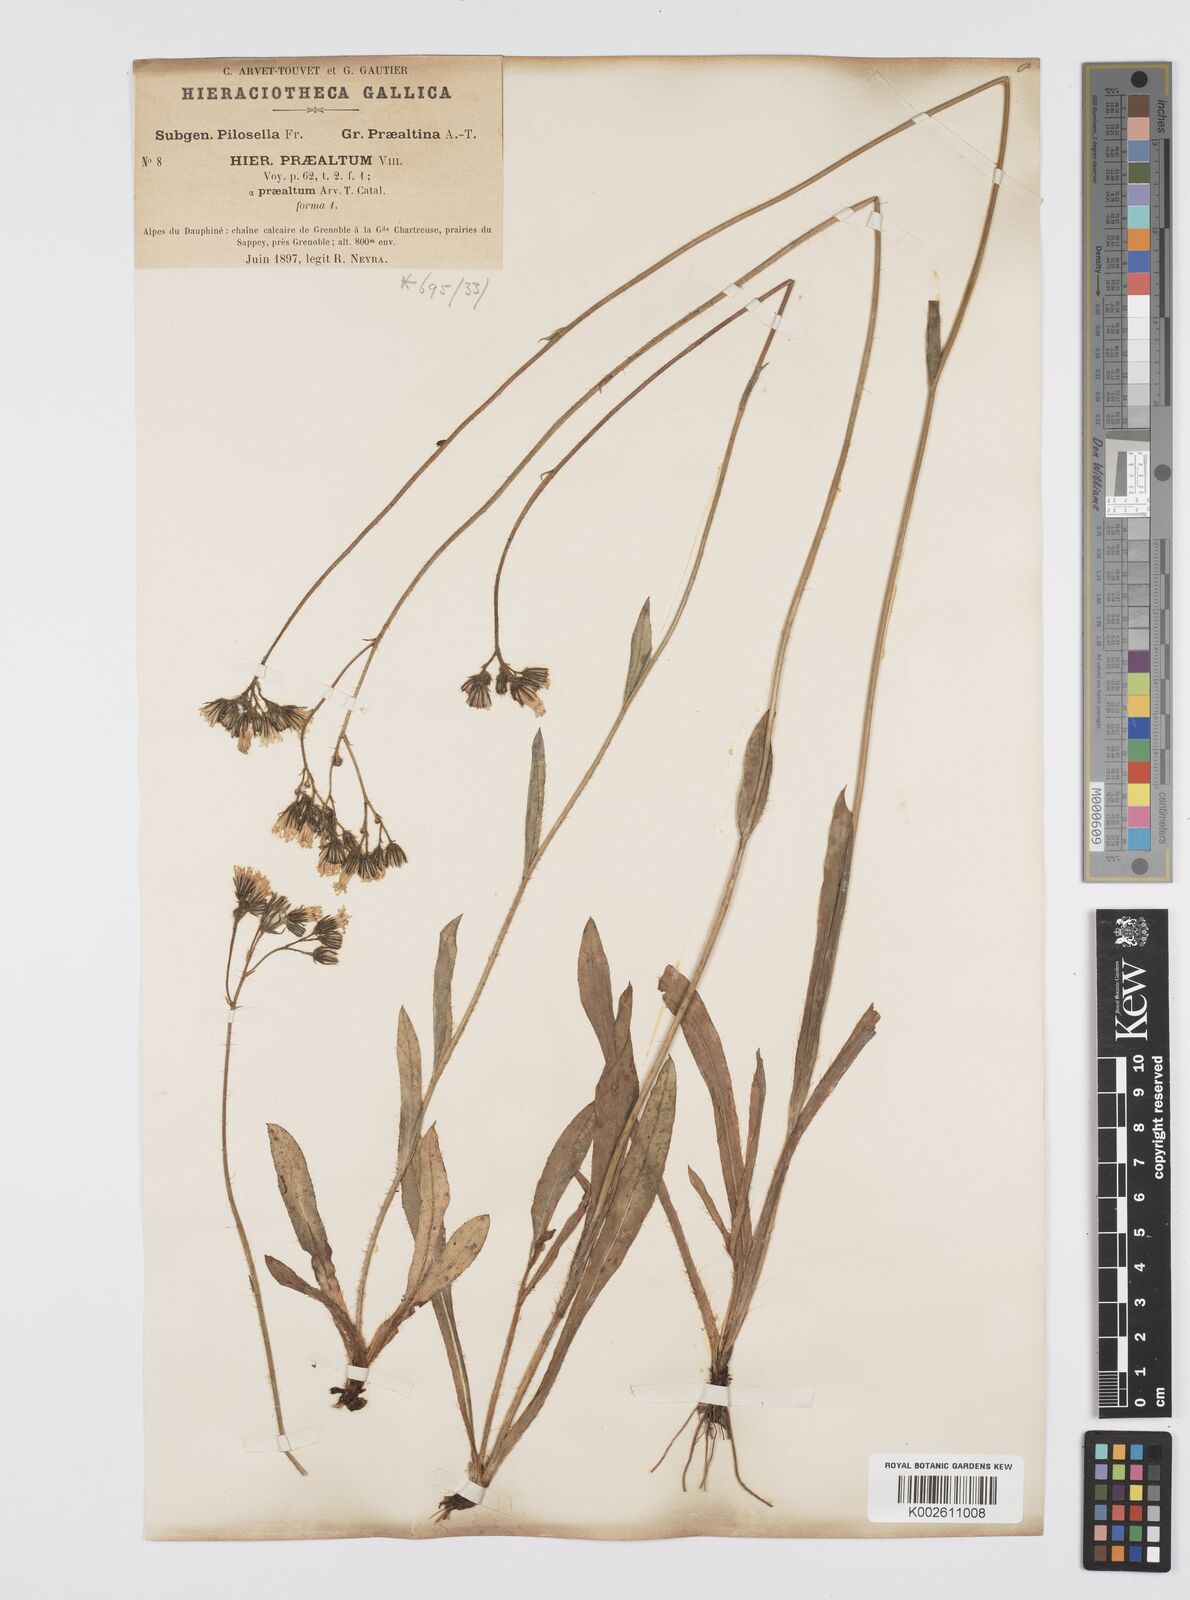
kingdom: Plantae
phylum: Tracheophyta
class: Magnoliopsida
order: Asterales
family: Asteraceae
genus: Pilosella
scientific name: Pilosella piloselloides
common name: Glaucous king-devil
